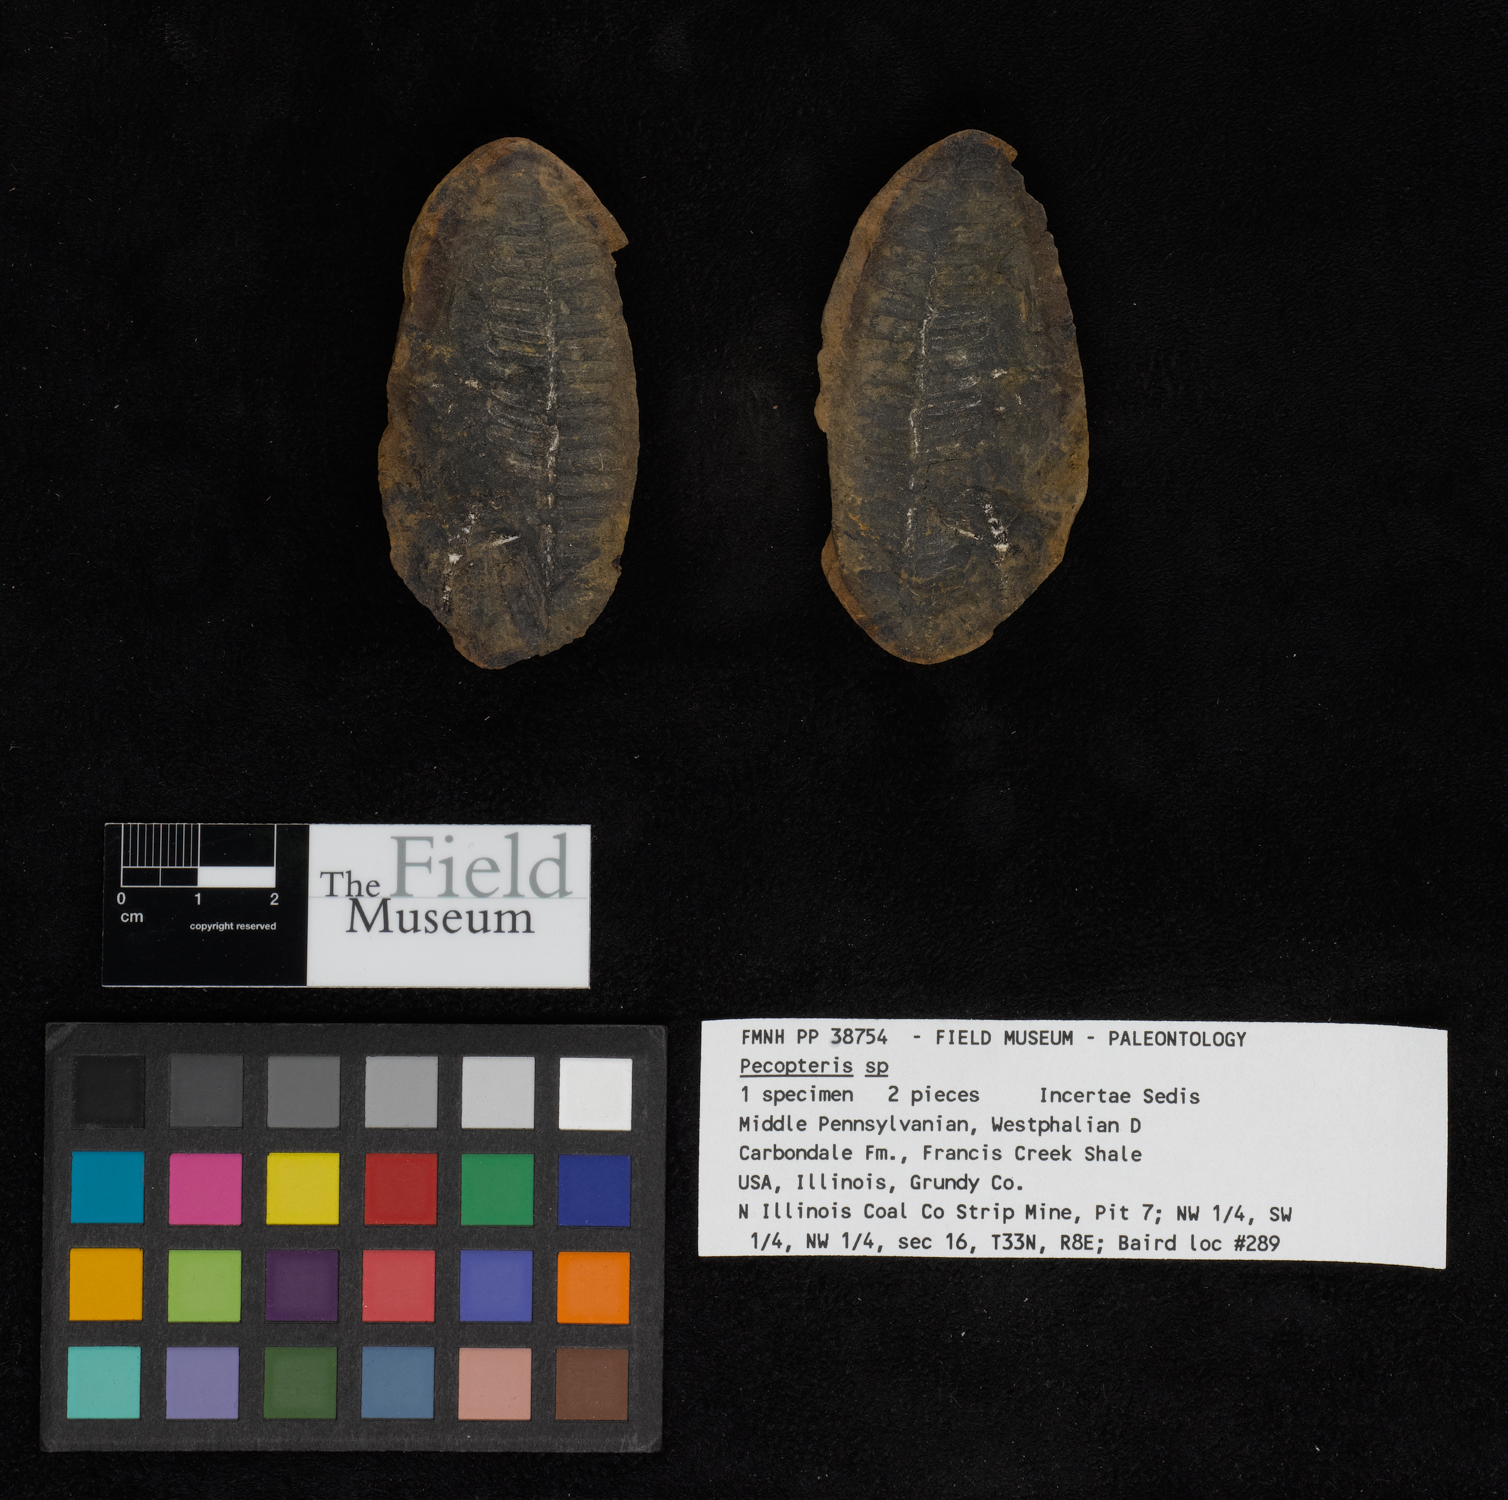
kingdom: Plantae
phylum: Tracheophyta
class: Polypodiopsida
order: Marattiales
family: Asterothecaceae
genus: Pecopteris
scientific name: Pecopteris
